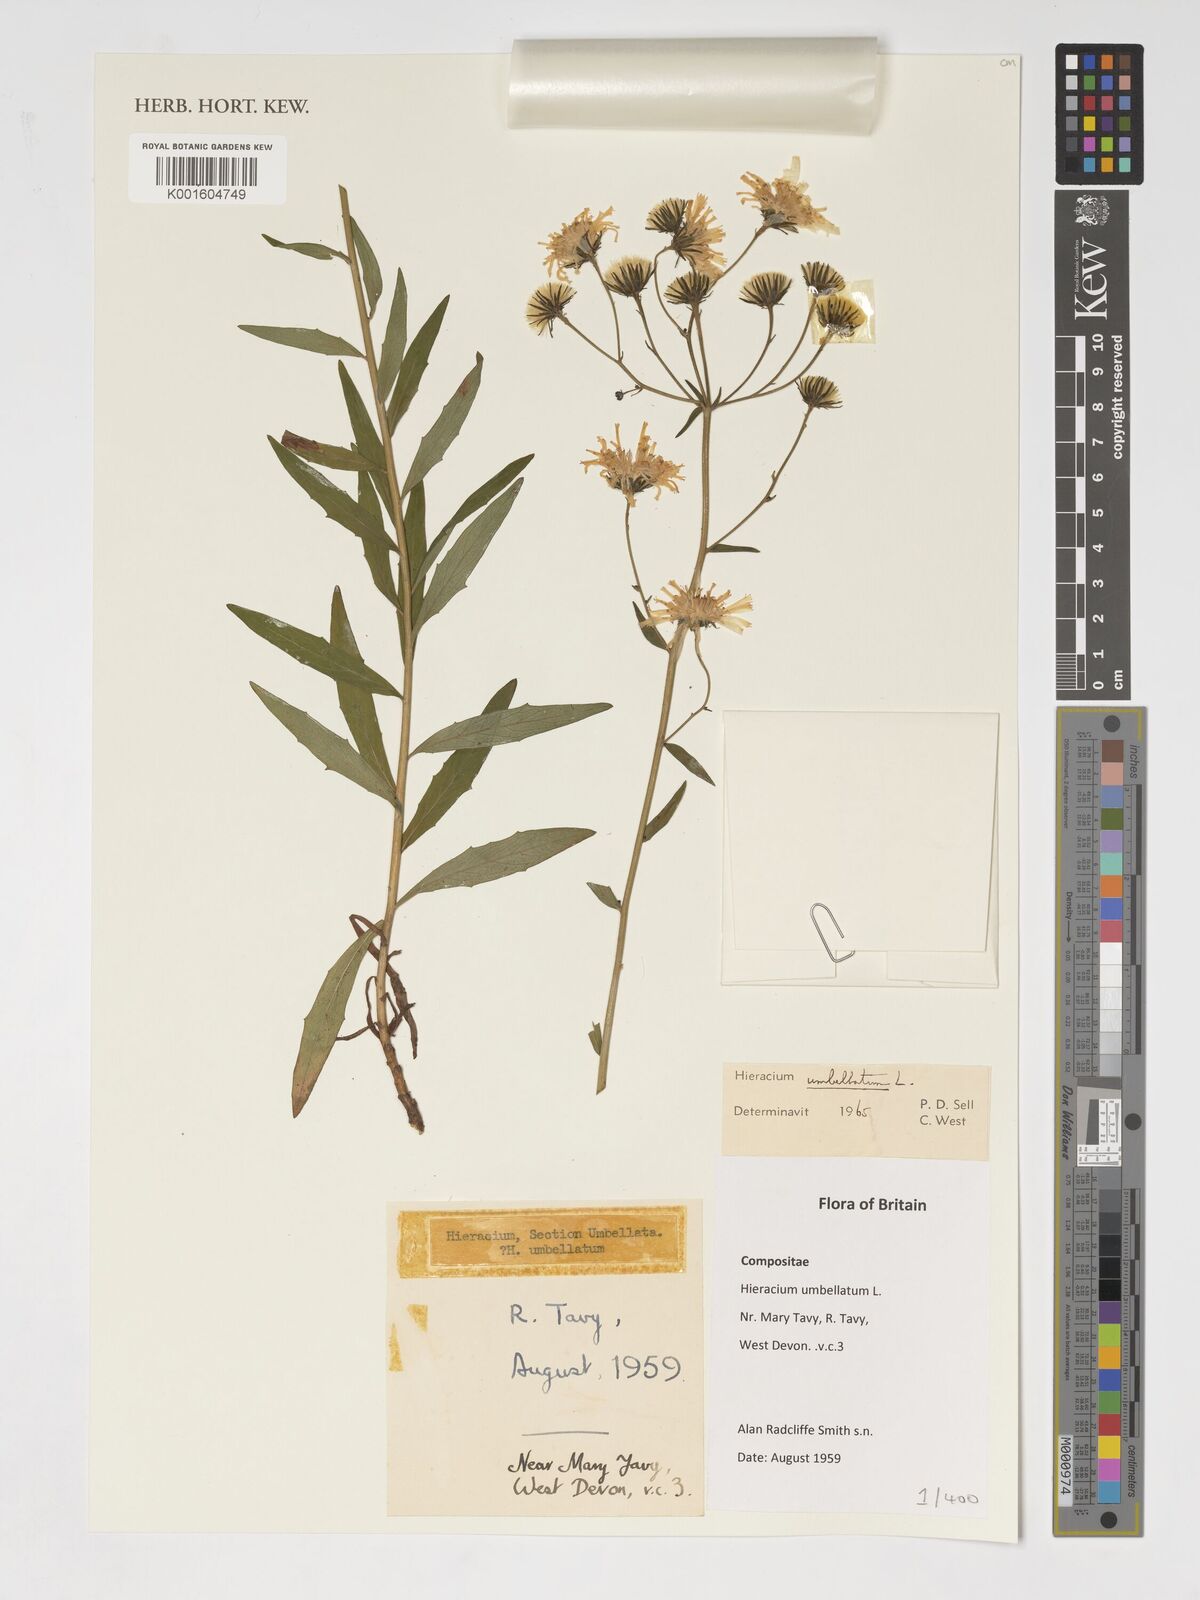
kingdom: Plantae
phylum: Tracheophyta
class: Magnoliopsida
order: Asterales
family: Asteraceae
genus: Hieracium
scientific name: Hieracium umbellatum
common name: Northern hawkweed
